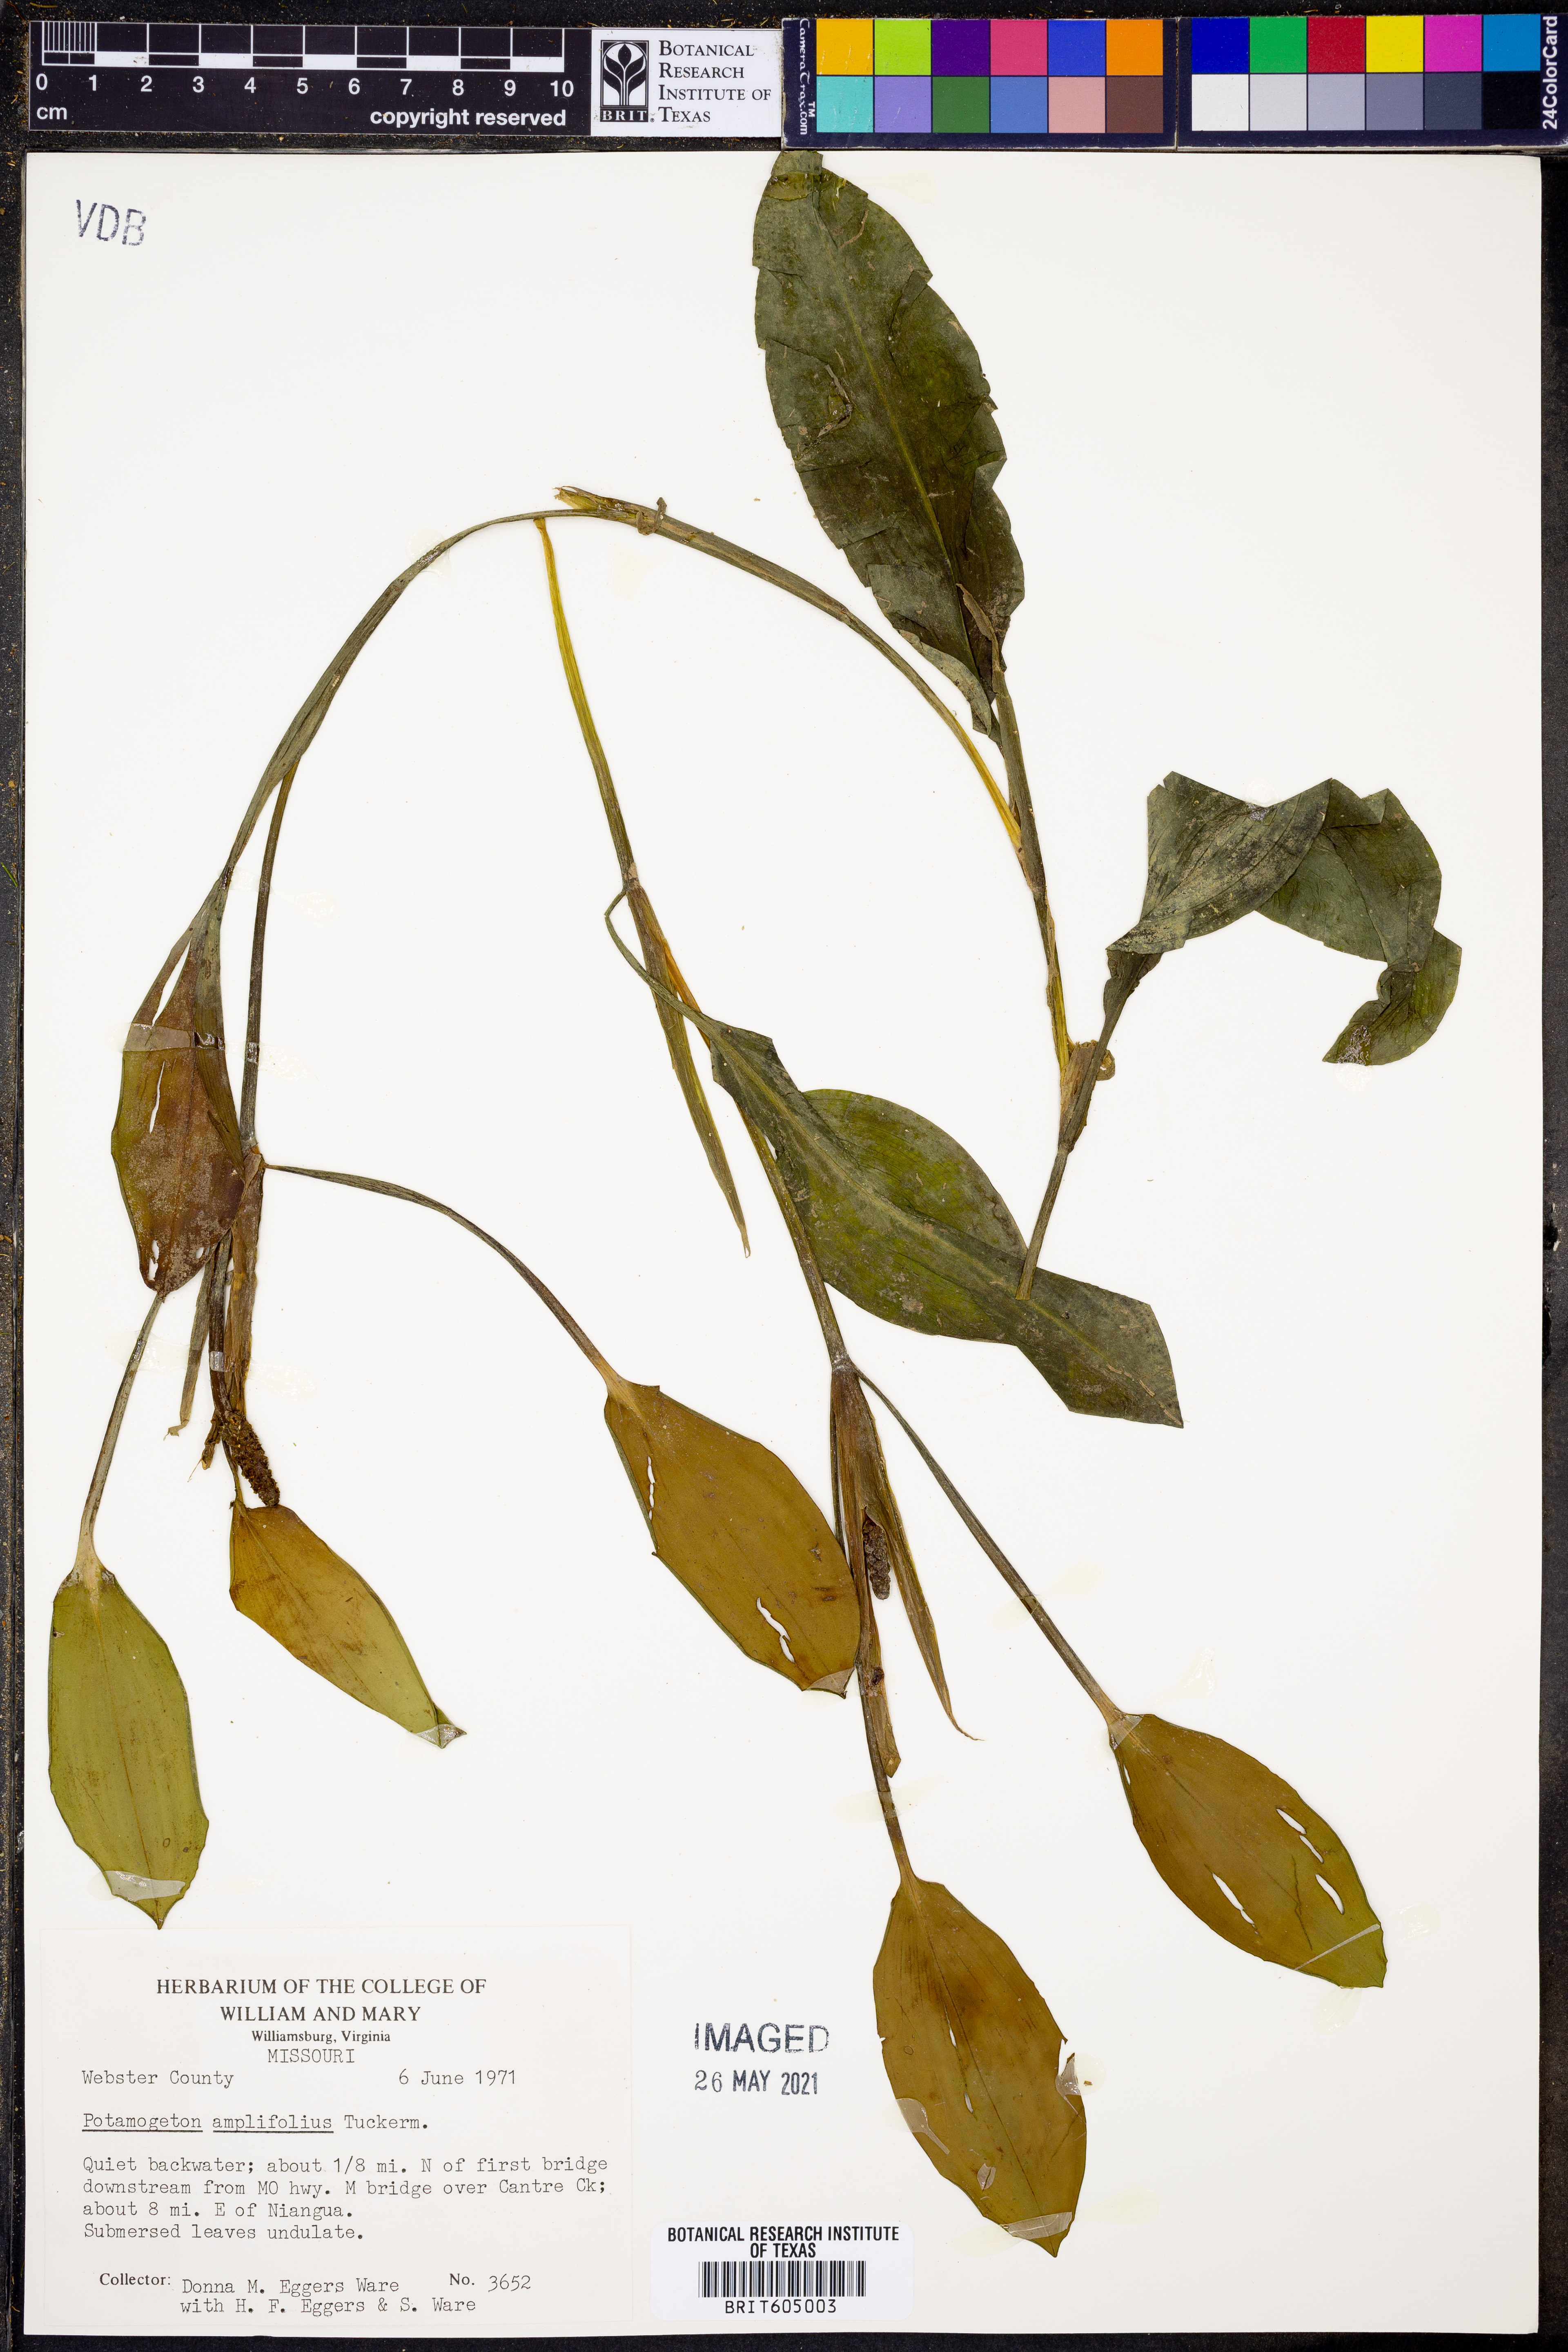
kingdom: Plantae
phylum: Tracheophyta
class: Liliopsida
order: Alismatales
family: Potamogetonaceae
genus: Potamogeton
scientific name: Potamogeton amplifolius
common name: Broad-leaved pondweed
